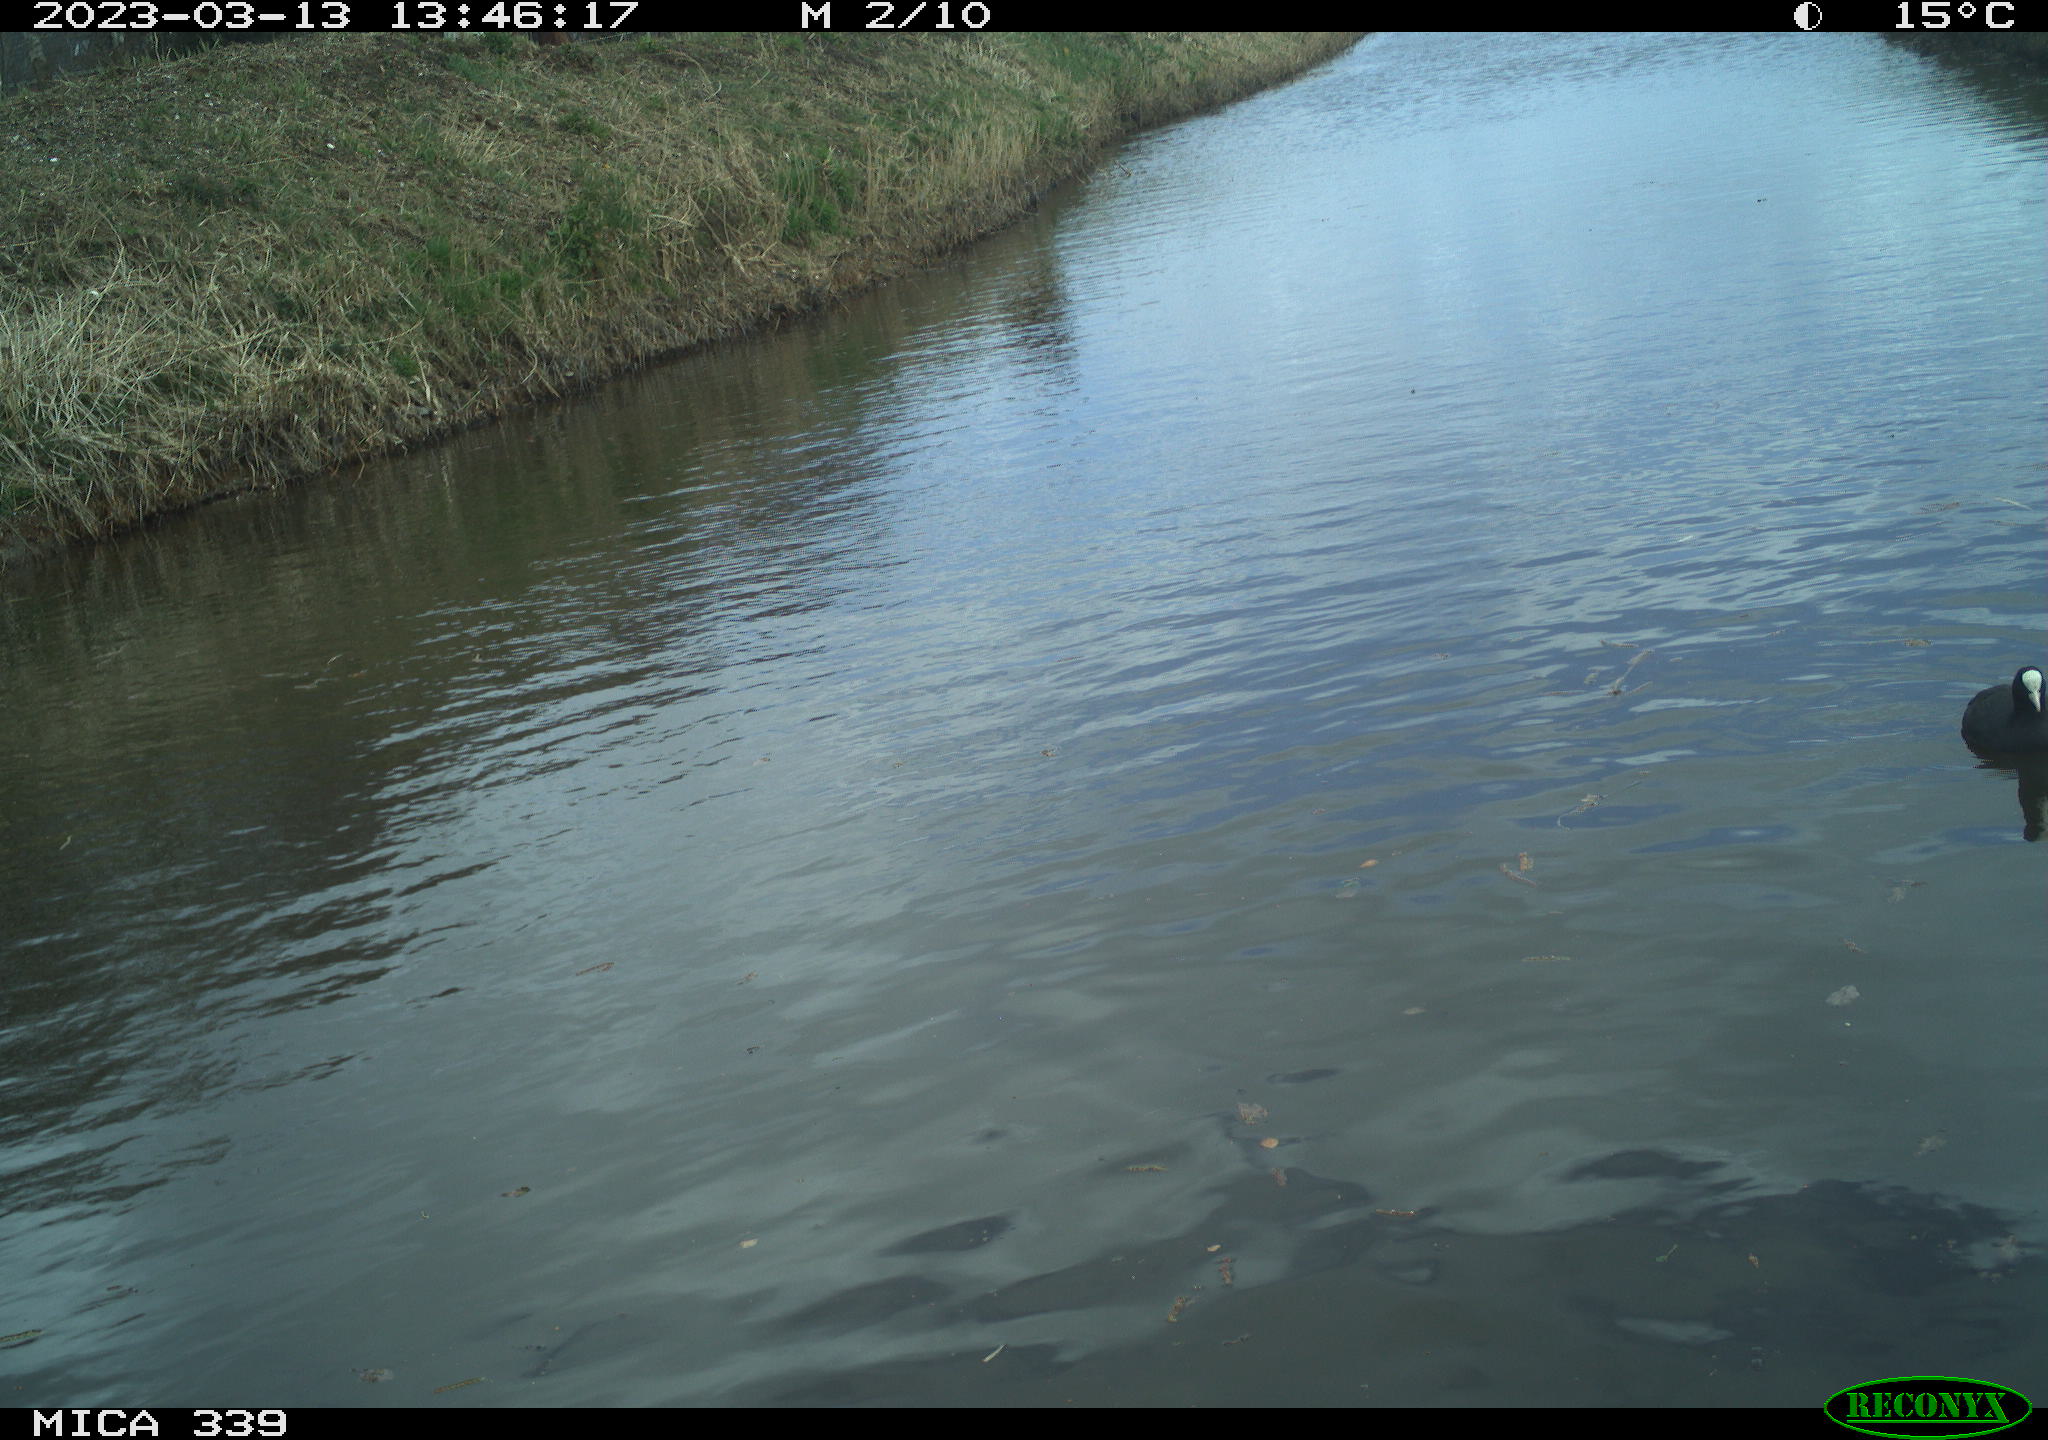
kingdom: Animalia
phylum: Chordata
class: Aves
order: Suliformes
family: Phalacrocoracidae
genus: Phalacrocorax
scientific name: Phalacrocorax carbo
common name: Great cormorant
